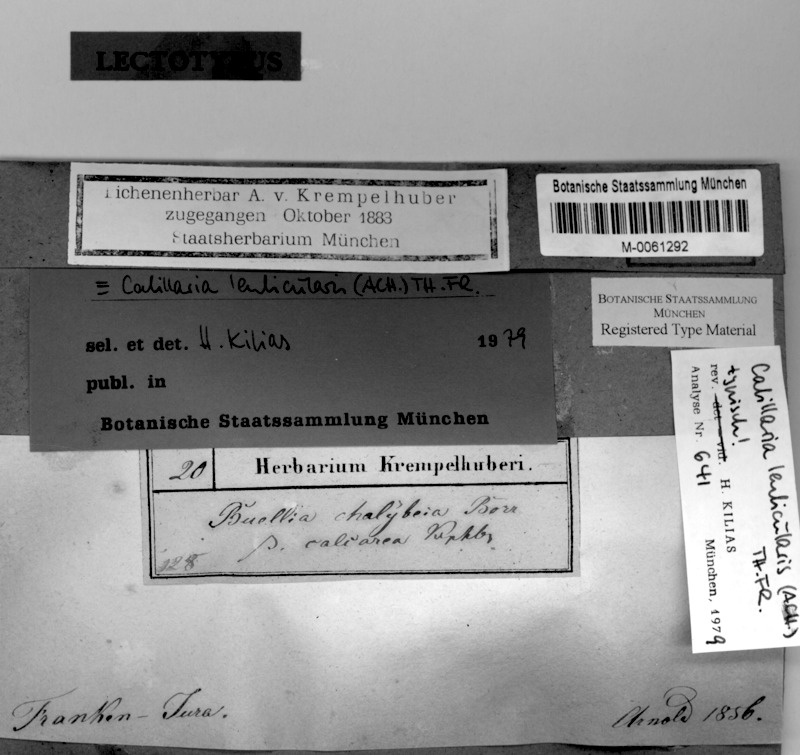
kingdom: Fungi
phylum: Ascomycota
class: Lecanoromycetes
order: Lecanorales
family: Catillariaceae
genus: Catillaria
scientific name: Catillaria lenticularis
